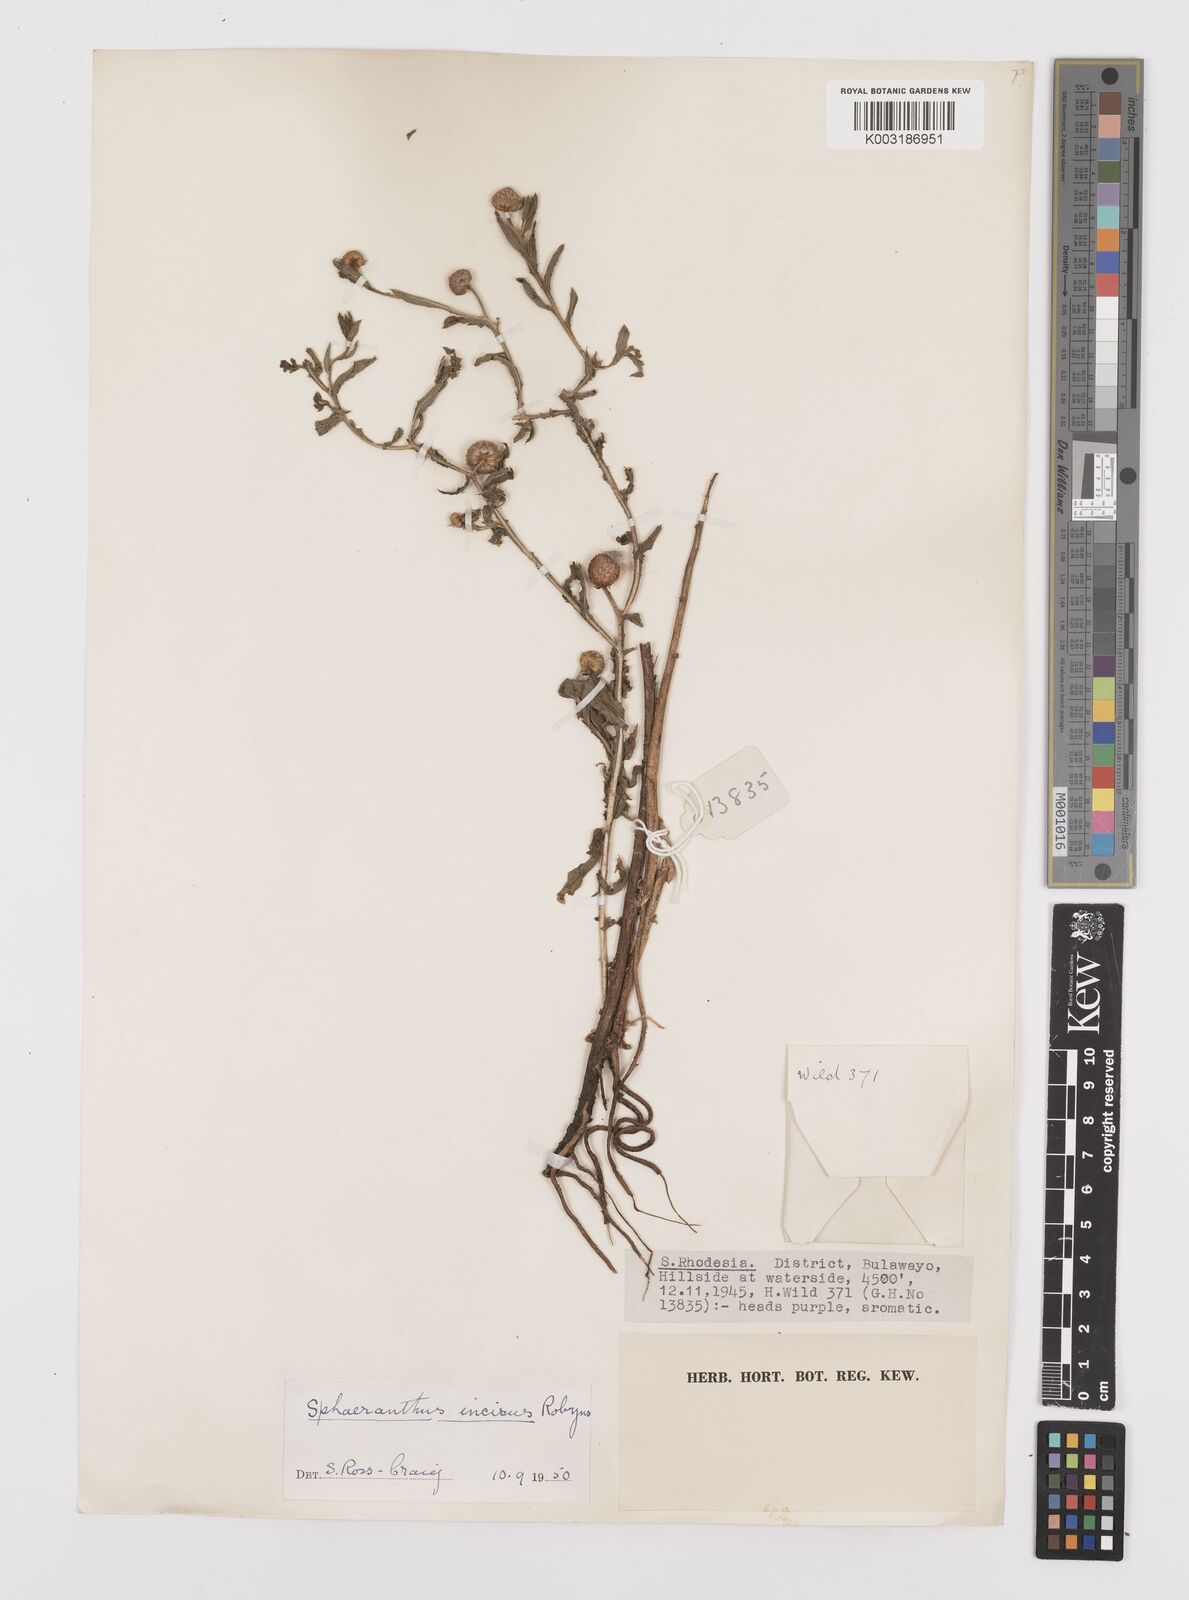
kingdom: Plantae
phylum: Tracheophyta
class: Magnoliopsida
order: Asterales
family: Asteraceae
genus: Sphaeranthus
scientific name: Sphaeranthus peduncularis
